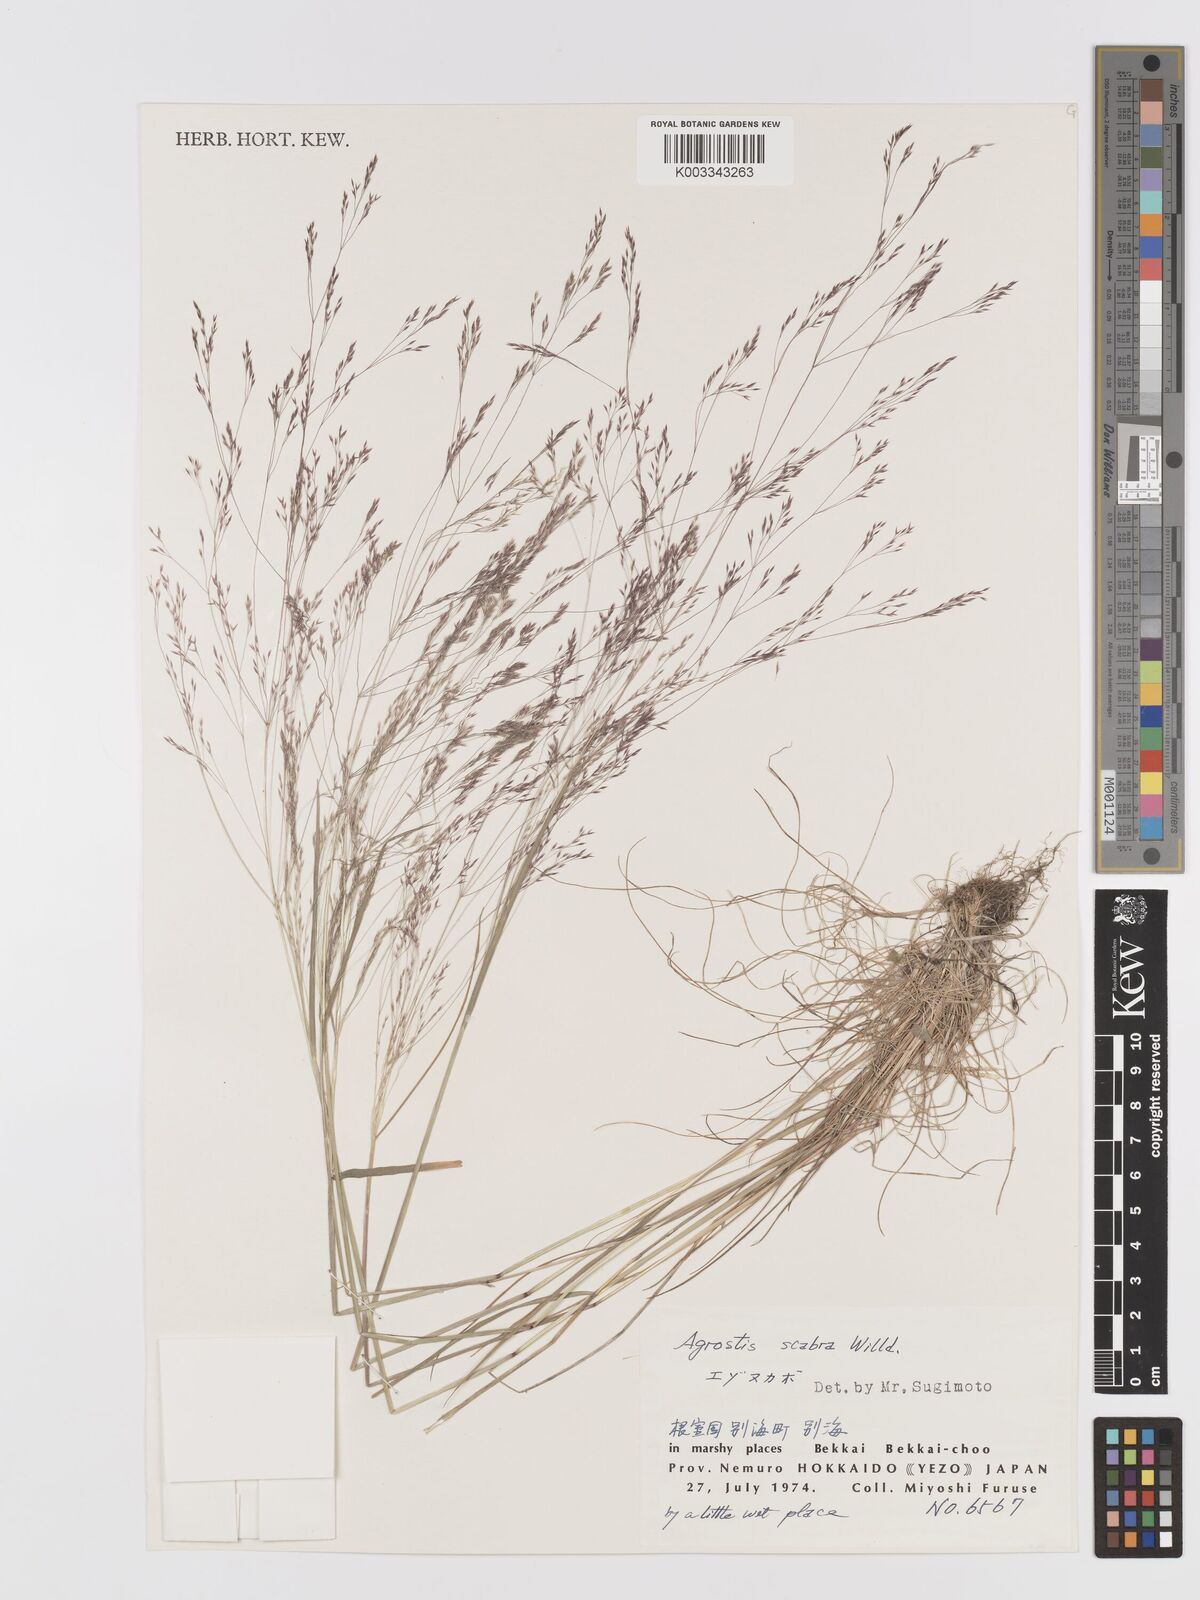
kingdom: Plantae
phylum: Tracheophyta
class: Liliopsida
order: Poales
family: Poaceae
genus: Agrostis
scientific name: Agrostis scabra
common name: Rough bent
